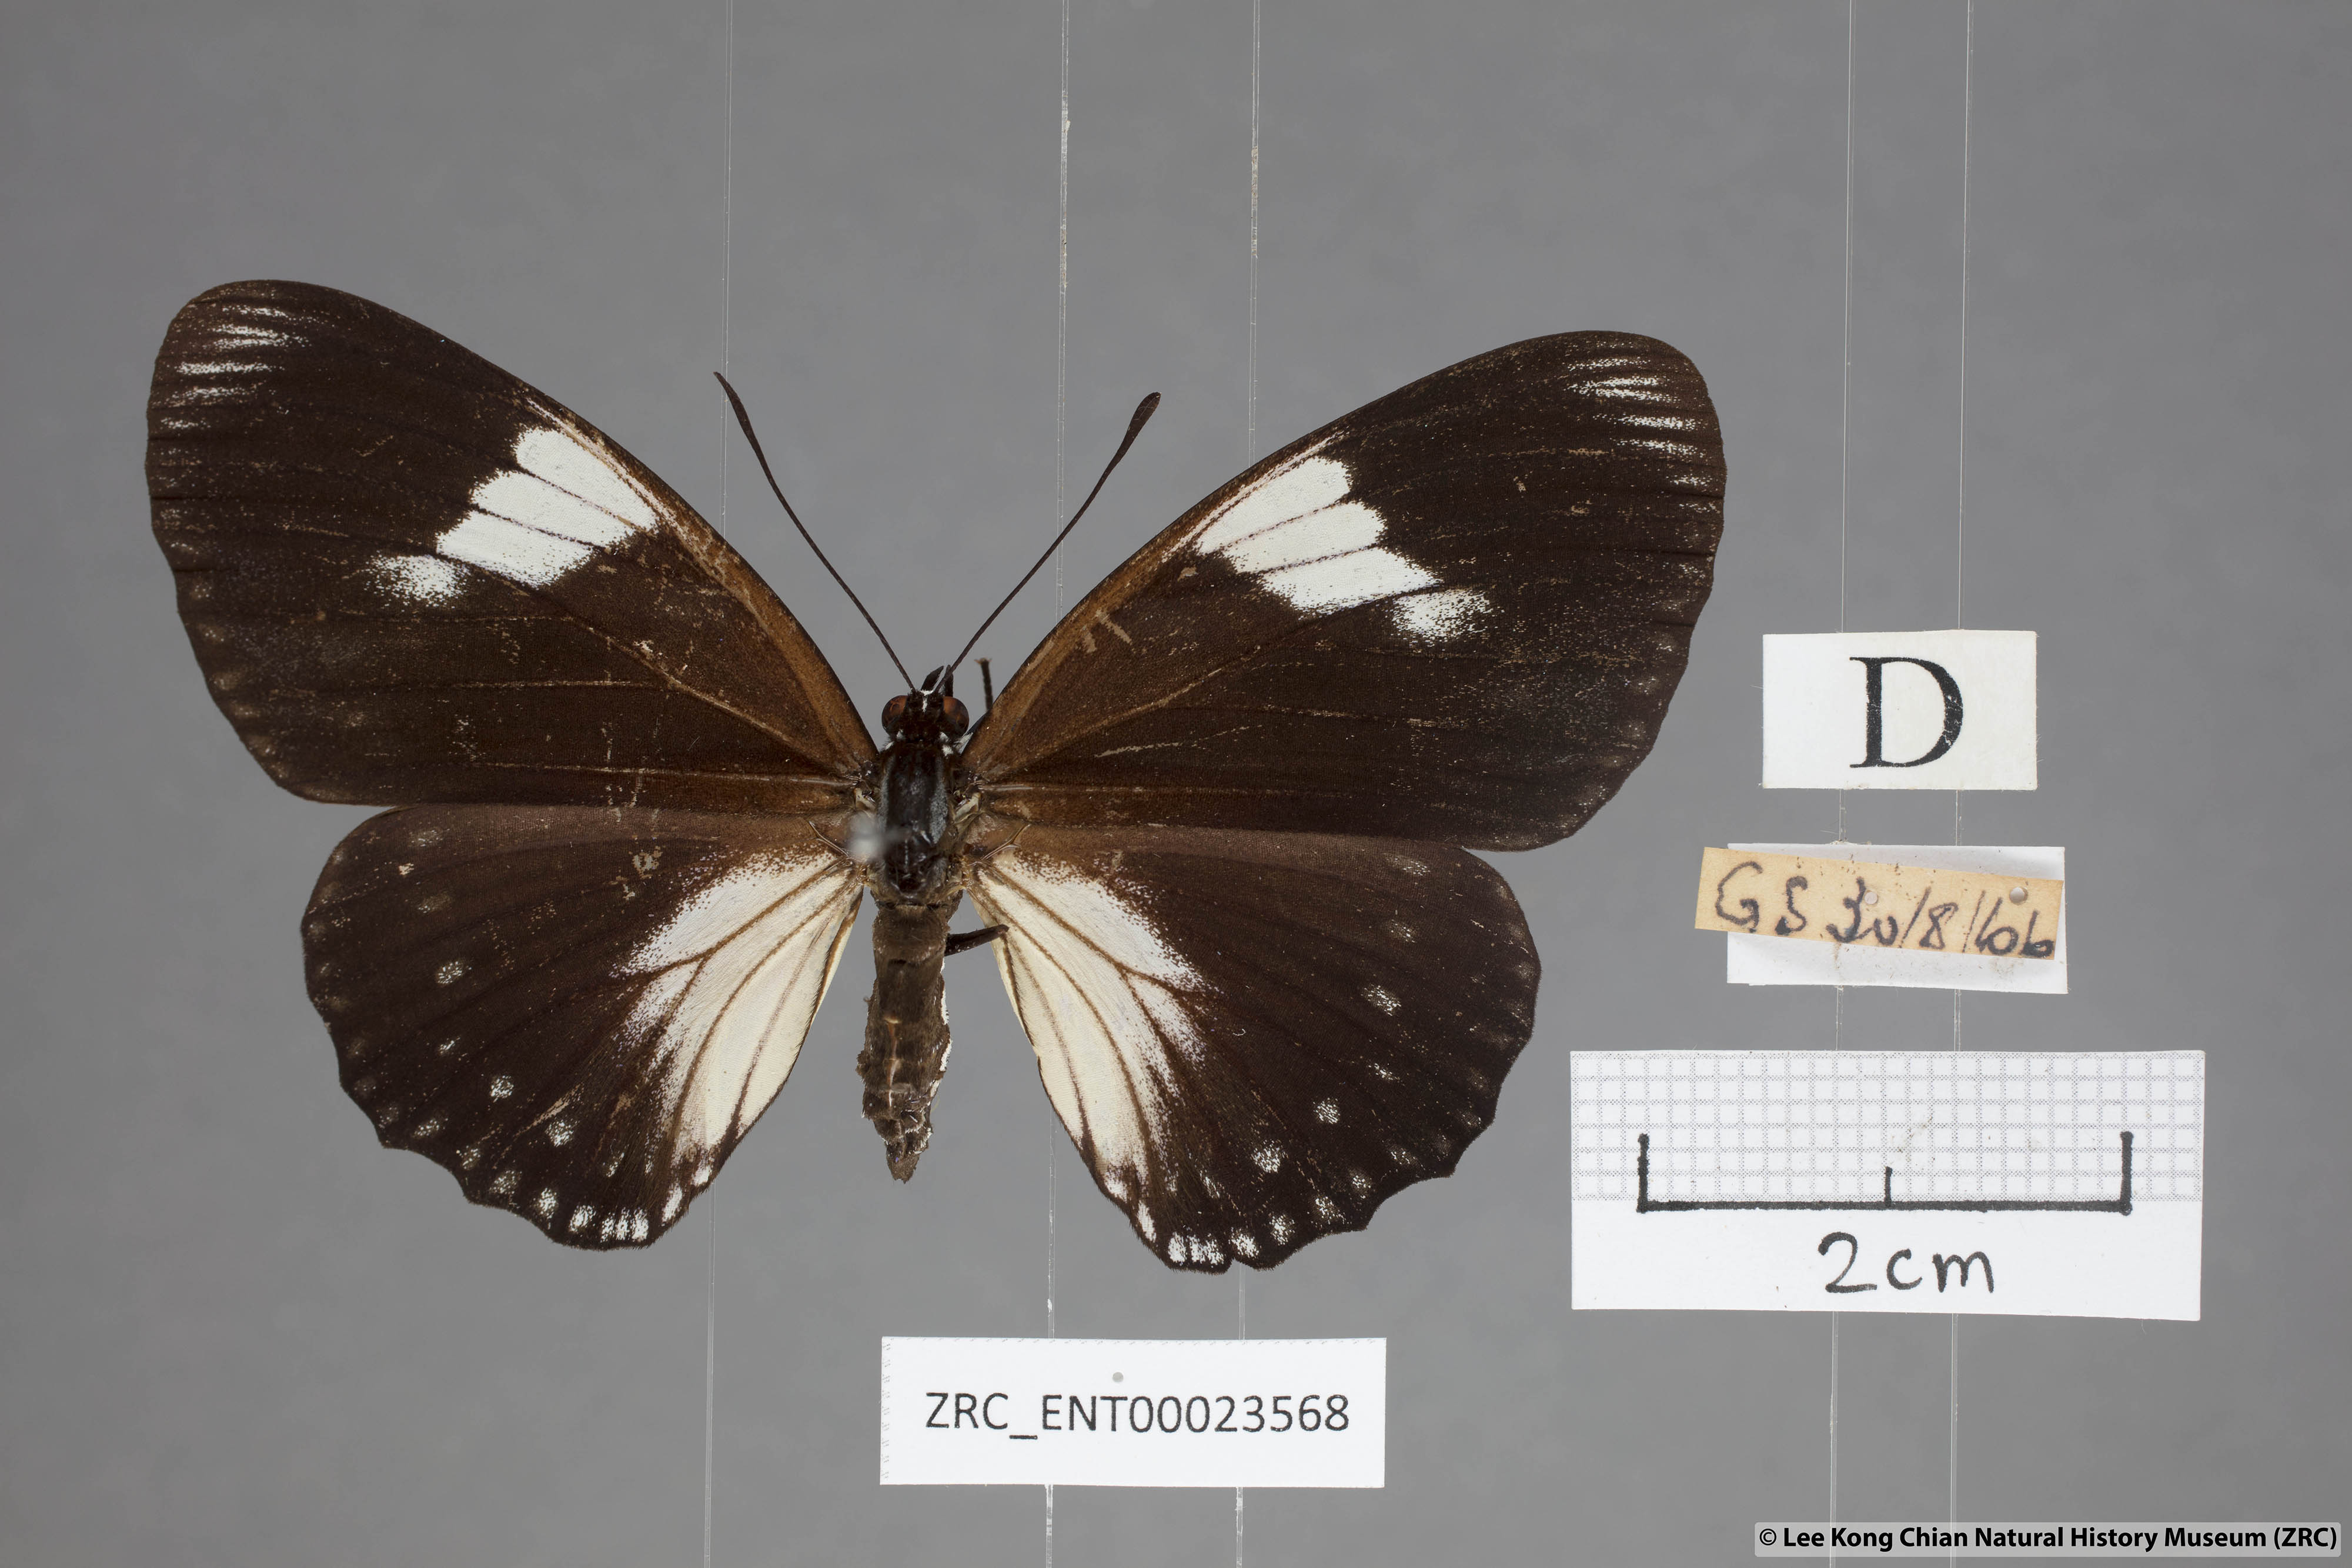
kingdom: Animalia
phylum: Arthropoda
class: Insecta
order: Lepidoptera
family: Nymphalidae
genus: Euripus
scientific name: Euripus nyctelius
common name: Courtesan
